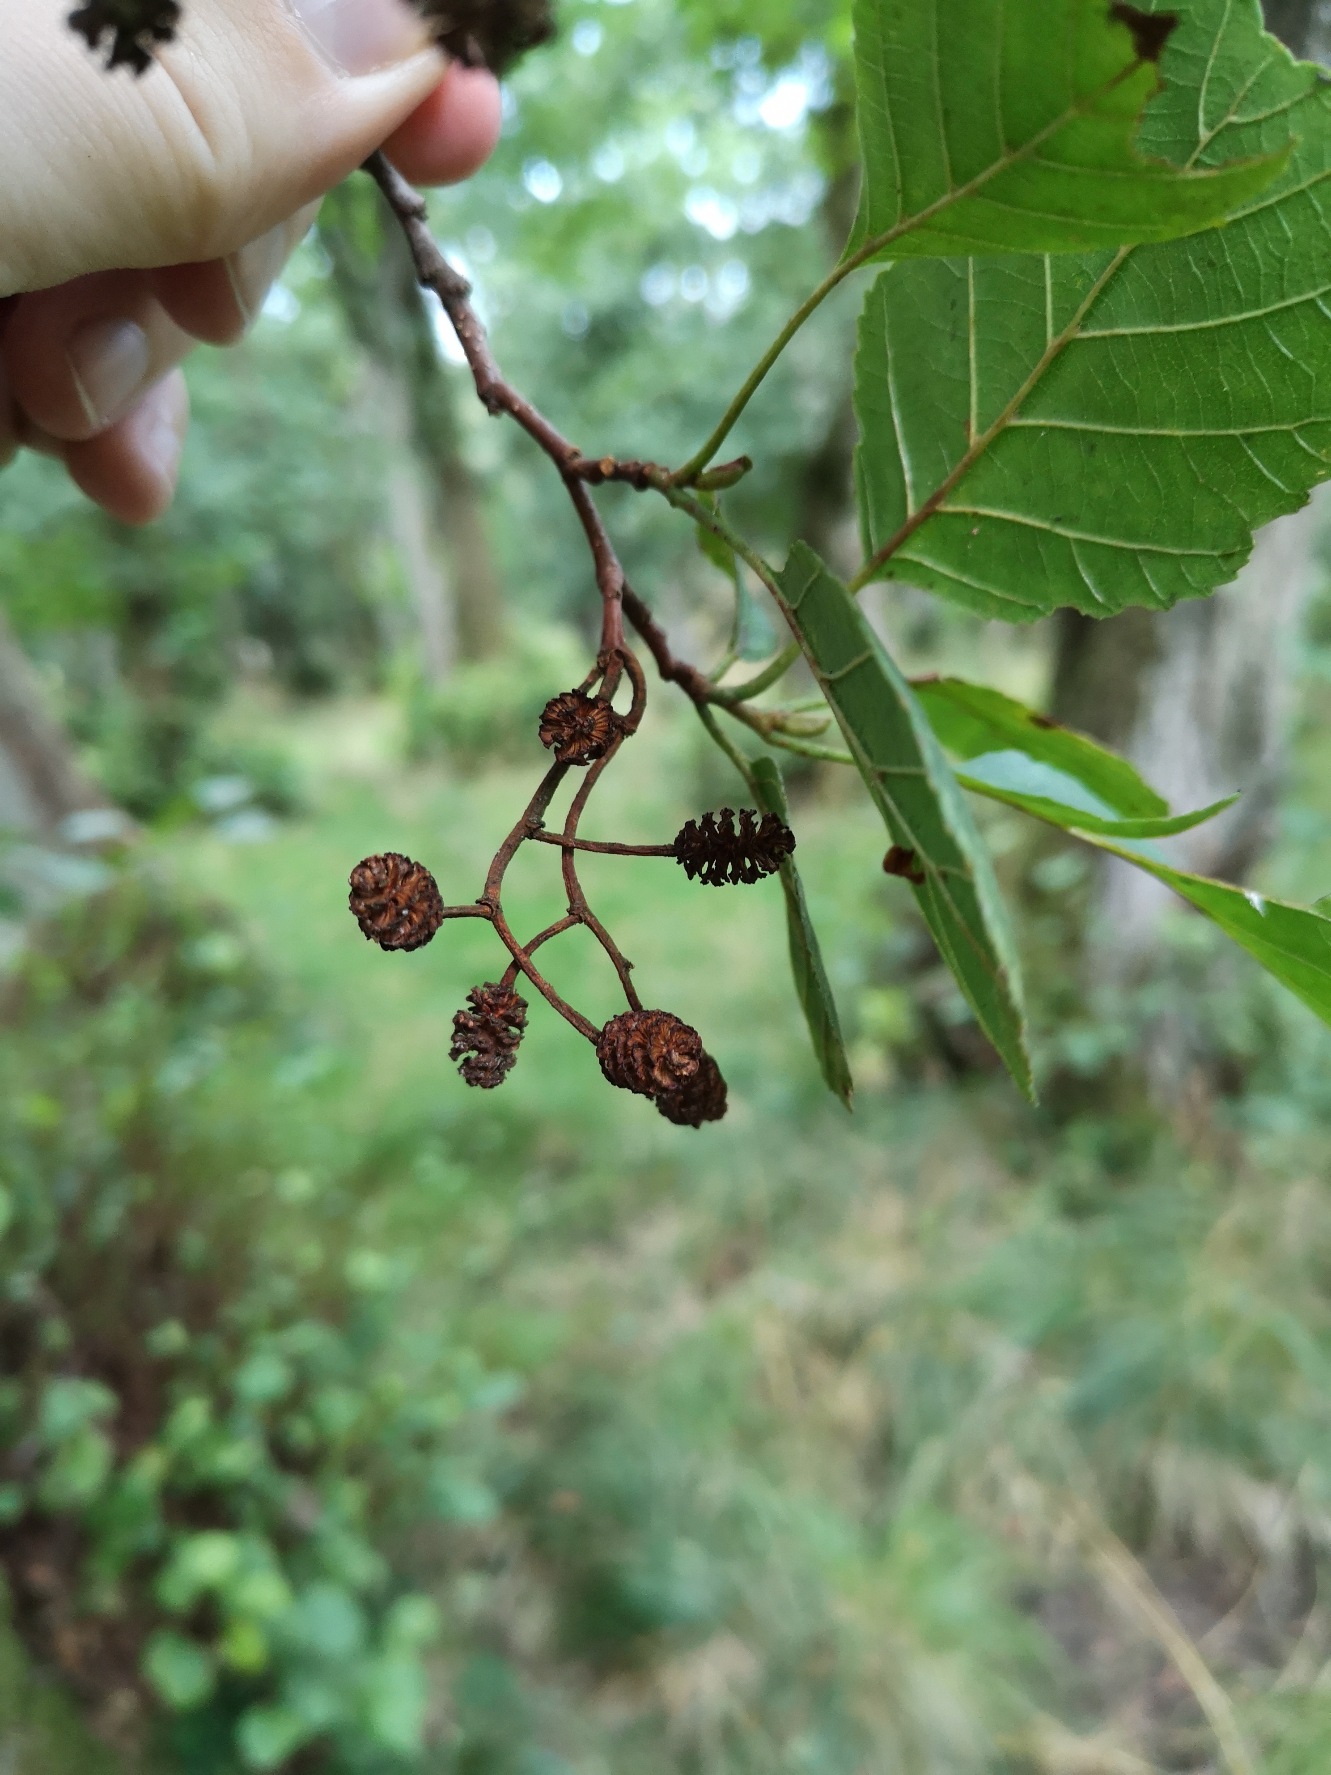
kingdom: Plantae
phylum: Tracheophyta
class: Magnoliopsida
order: Fagales
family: Betulaceae
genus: Alnus
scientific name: Alnus glutinosa
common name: Rød-el
